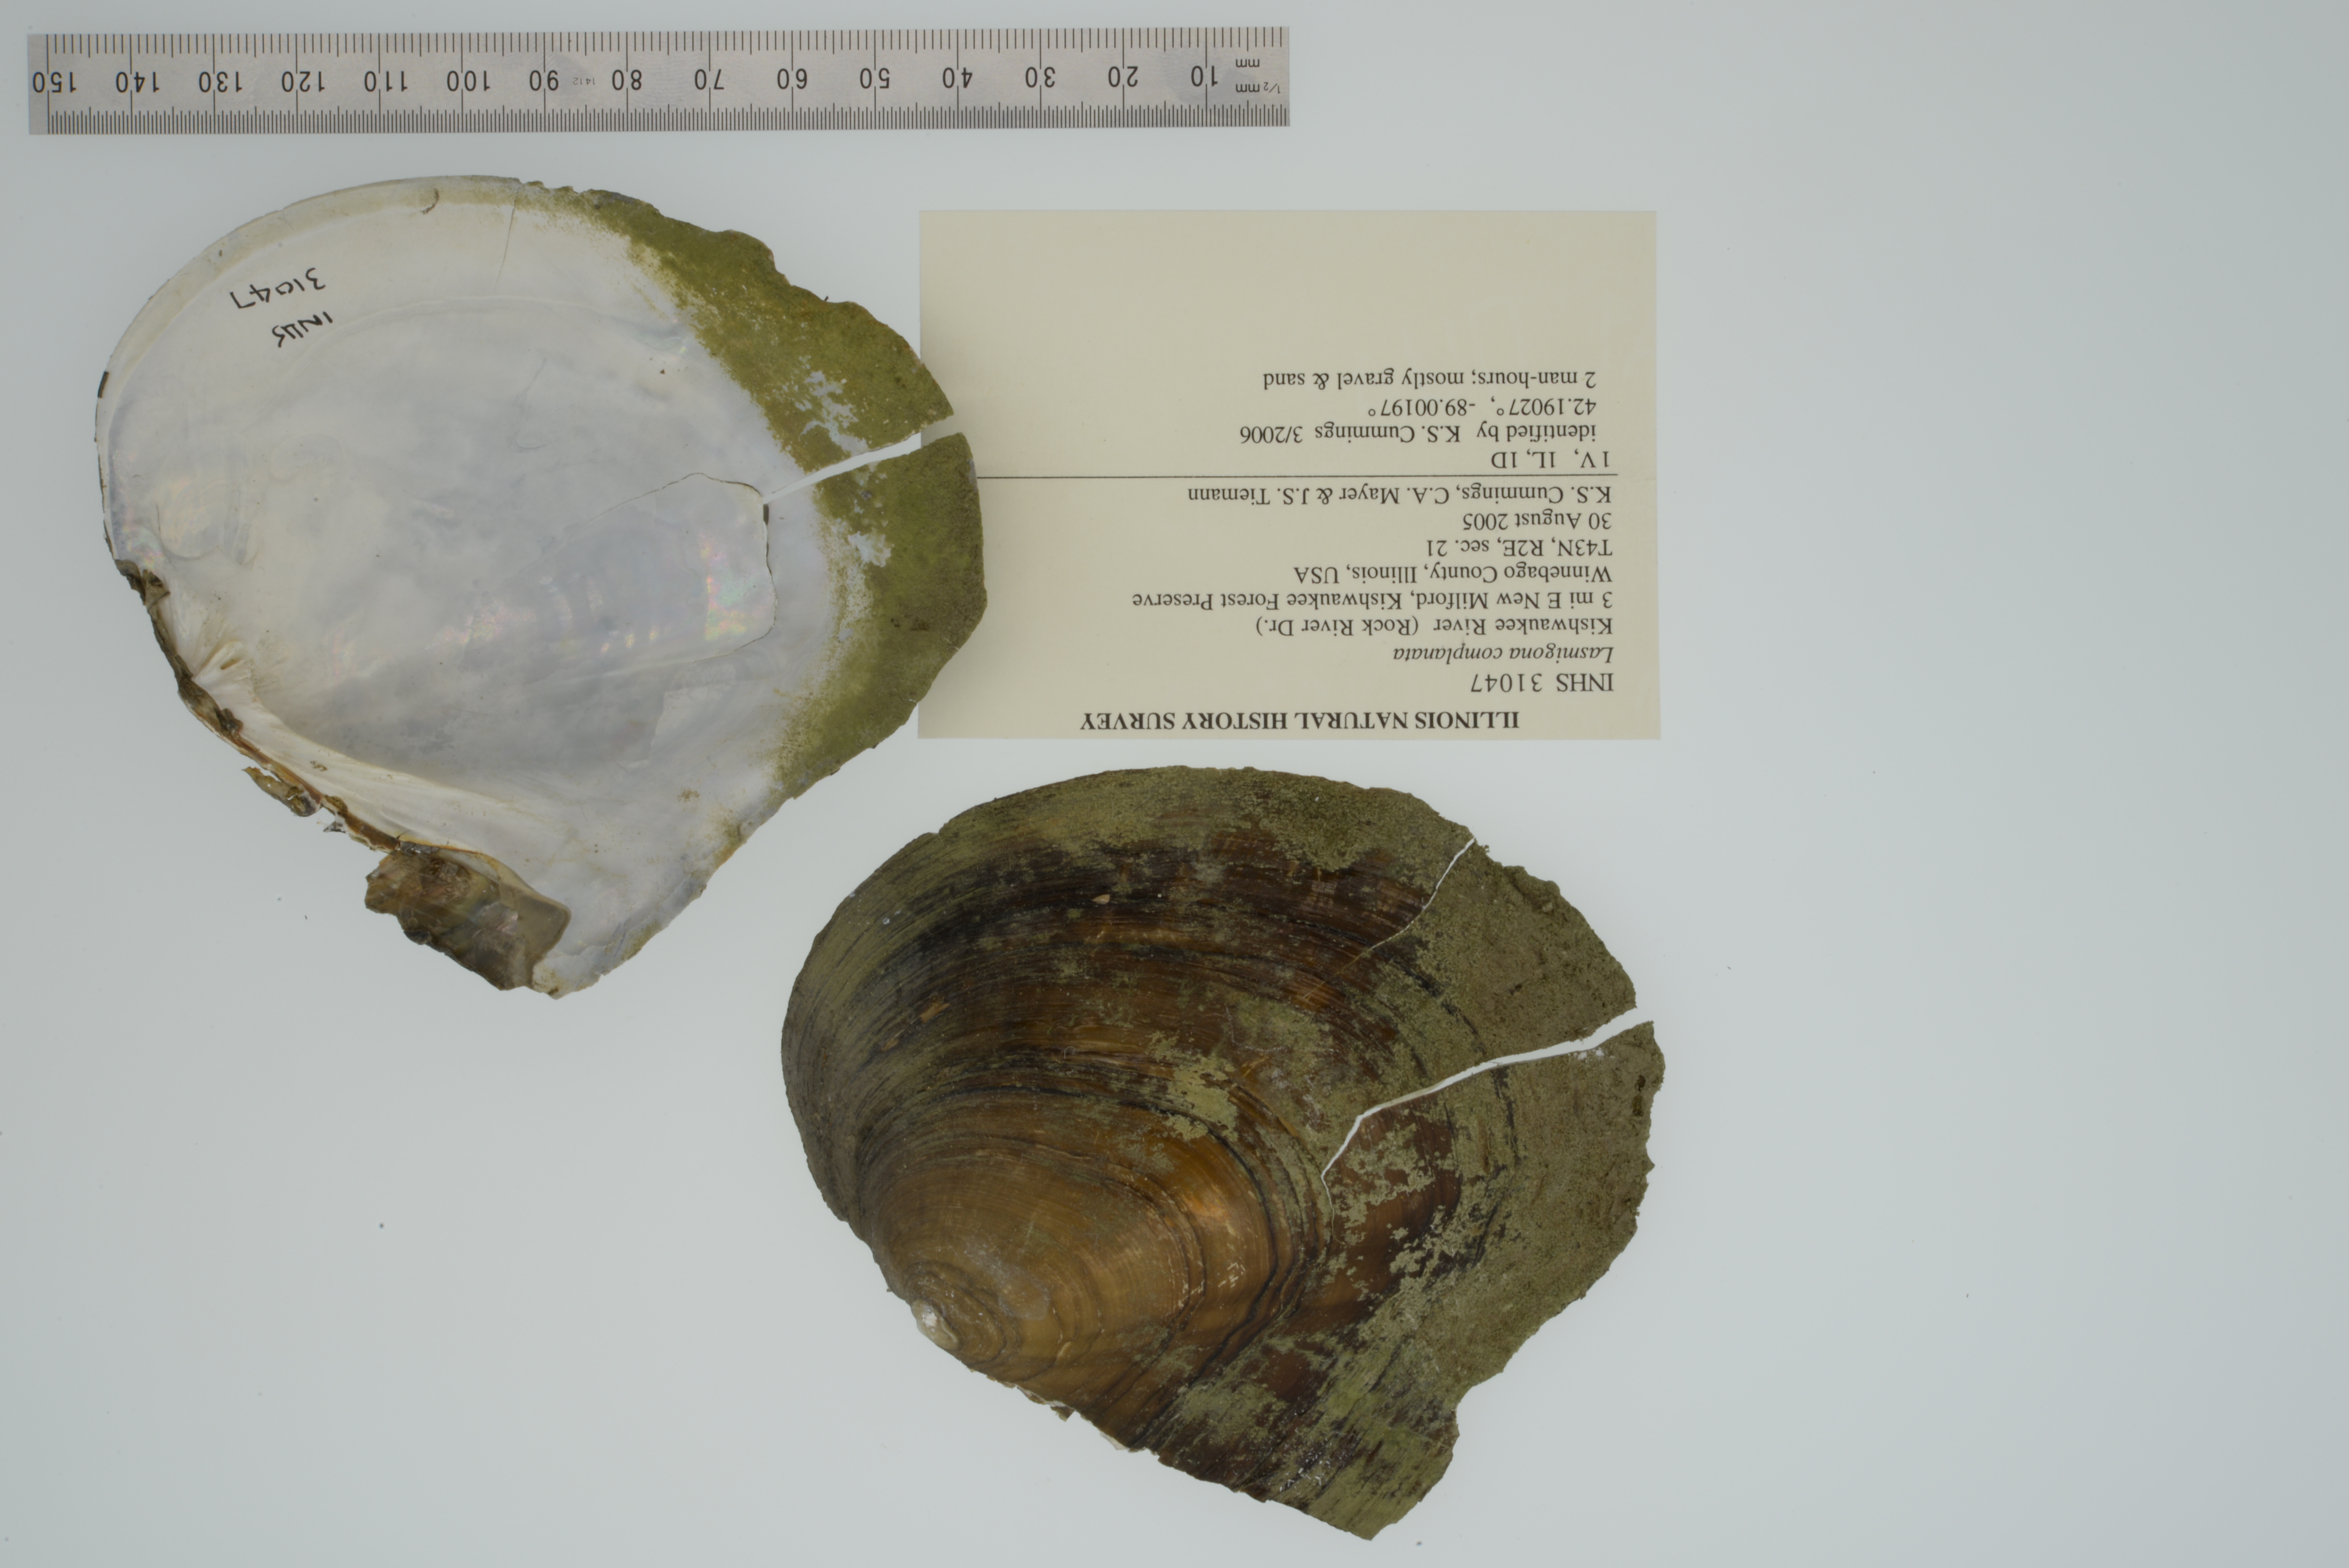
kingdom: Animalia
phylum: Mollusca
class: Bivalvia
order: Unionida
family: Unionidae
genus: Lasmigona
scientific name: Lasmigona complanata
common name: White heelsplitter
